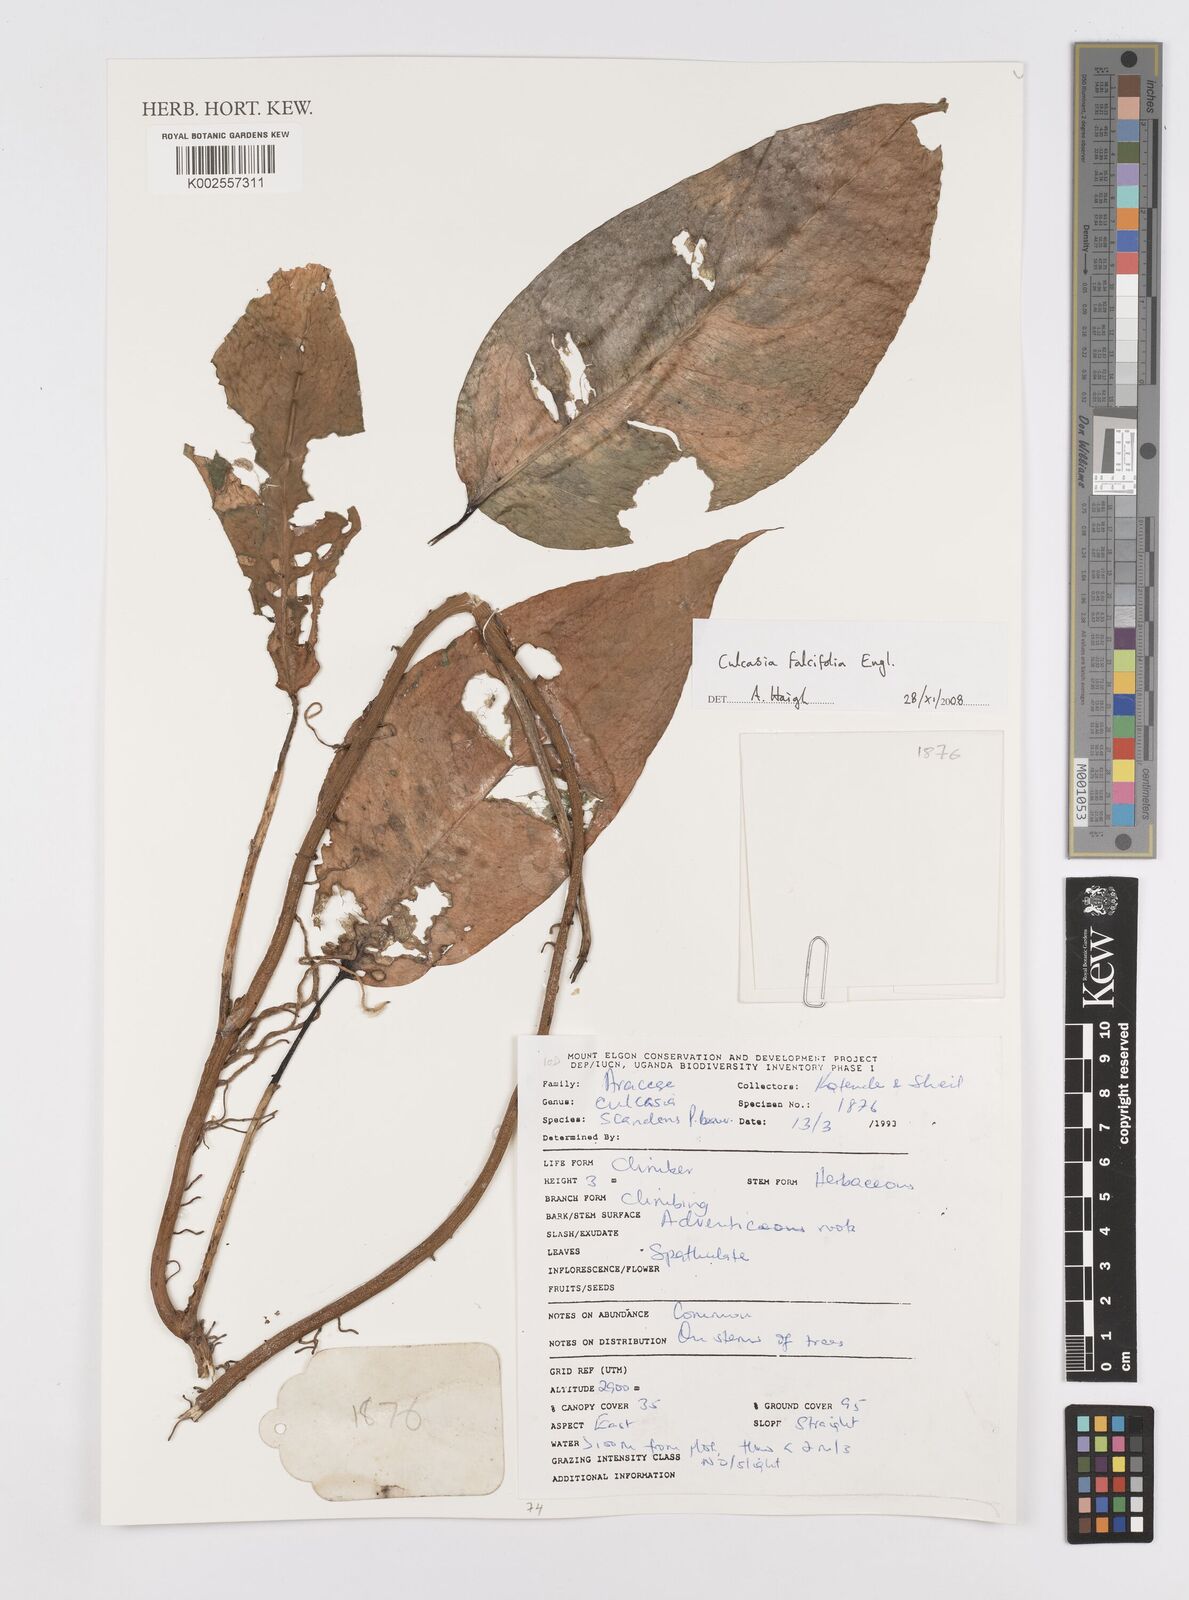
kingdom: Plantae
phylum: Tracheophyta
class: Liliopsida
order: Alismatales
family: Araceae
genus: Culcasia
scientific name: Culcasia falcifolia
